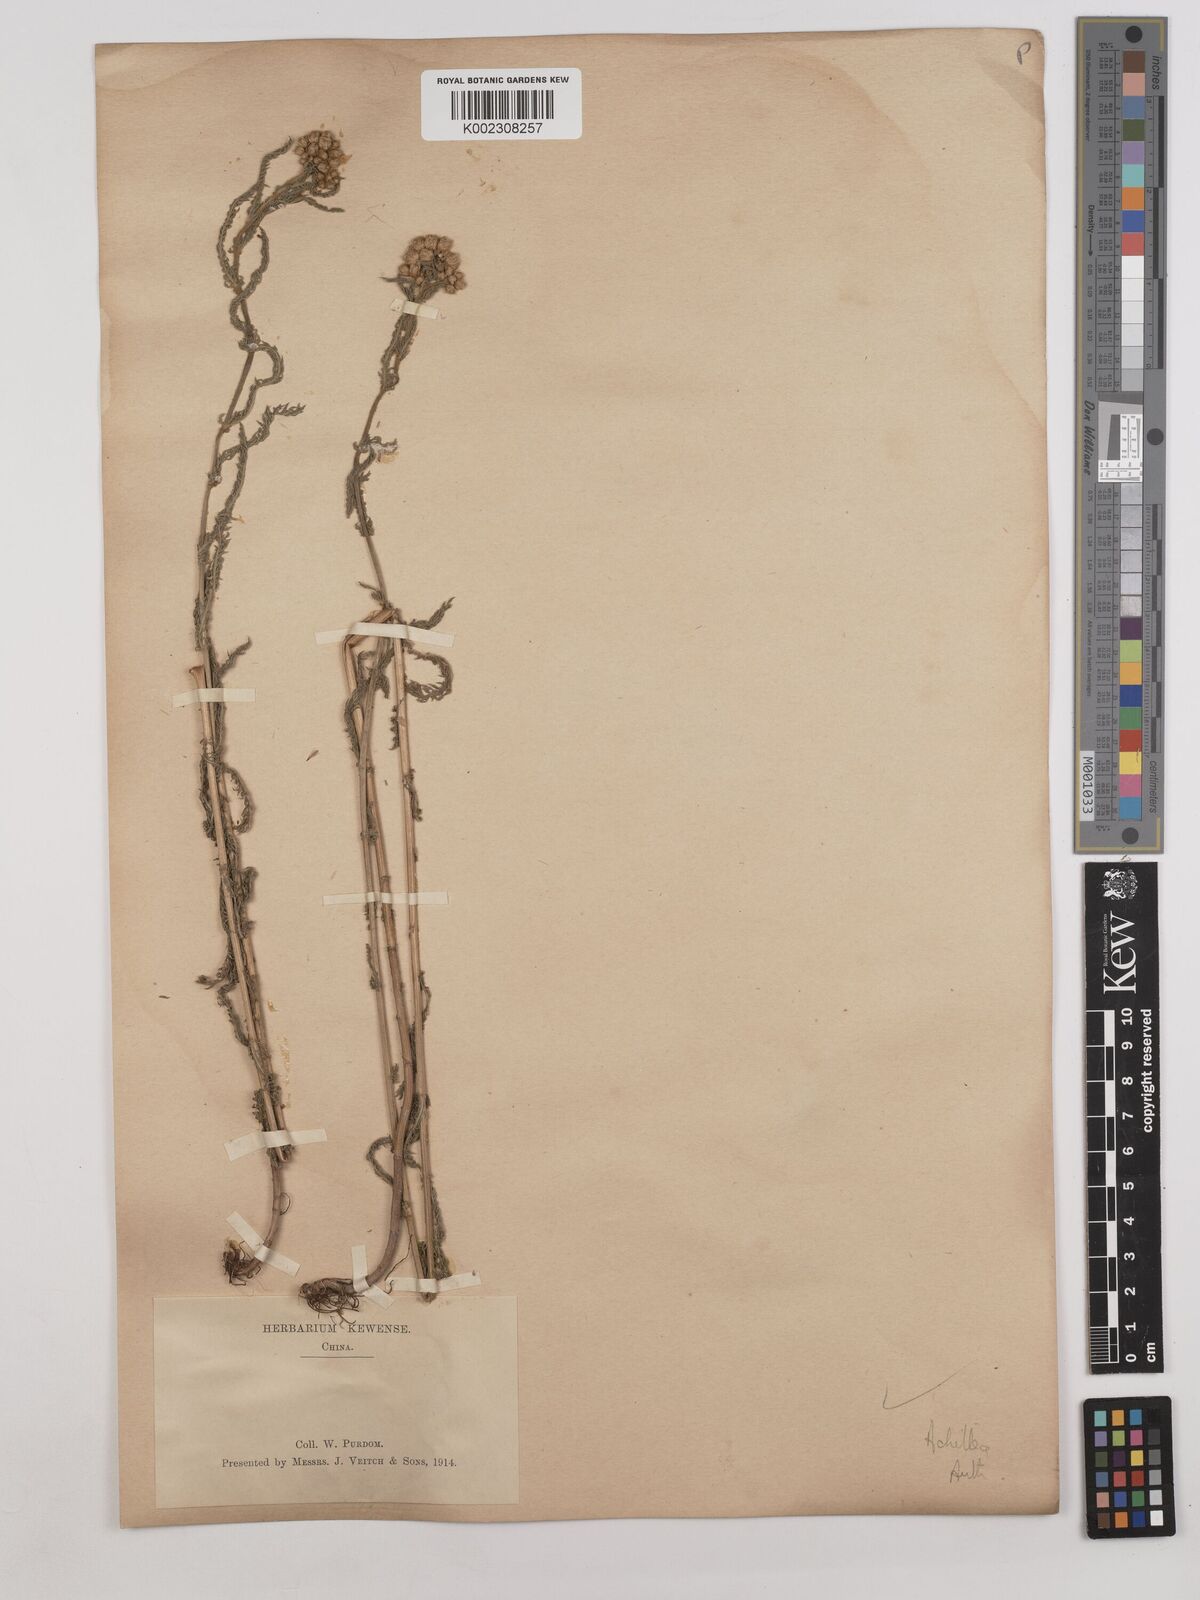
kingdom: Plantae
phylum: Tracheophyta
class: Magnoliopsida
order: Asterales
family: Asteraceae
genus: Achillea
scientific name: Achillea
